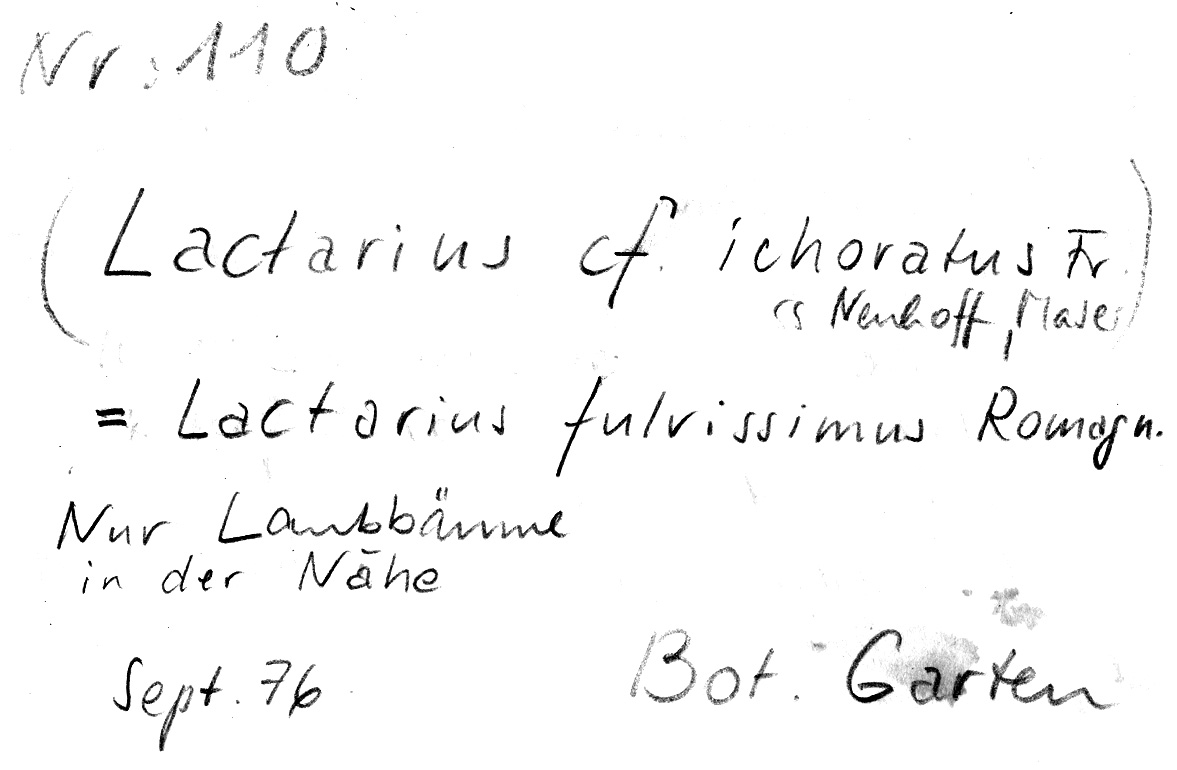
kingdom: Fungi
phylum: Basidiomycota
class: Agaricomycetes
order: Russulales
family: Russulaceae
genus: Lactarius
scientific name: Lactarius fulvissimus
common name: Tawny milkcap
